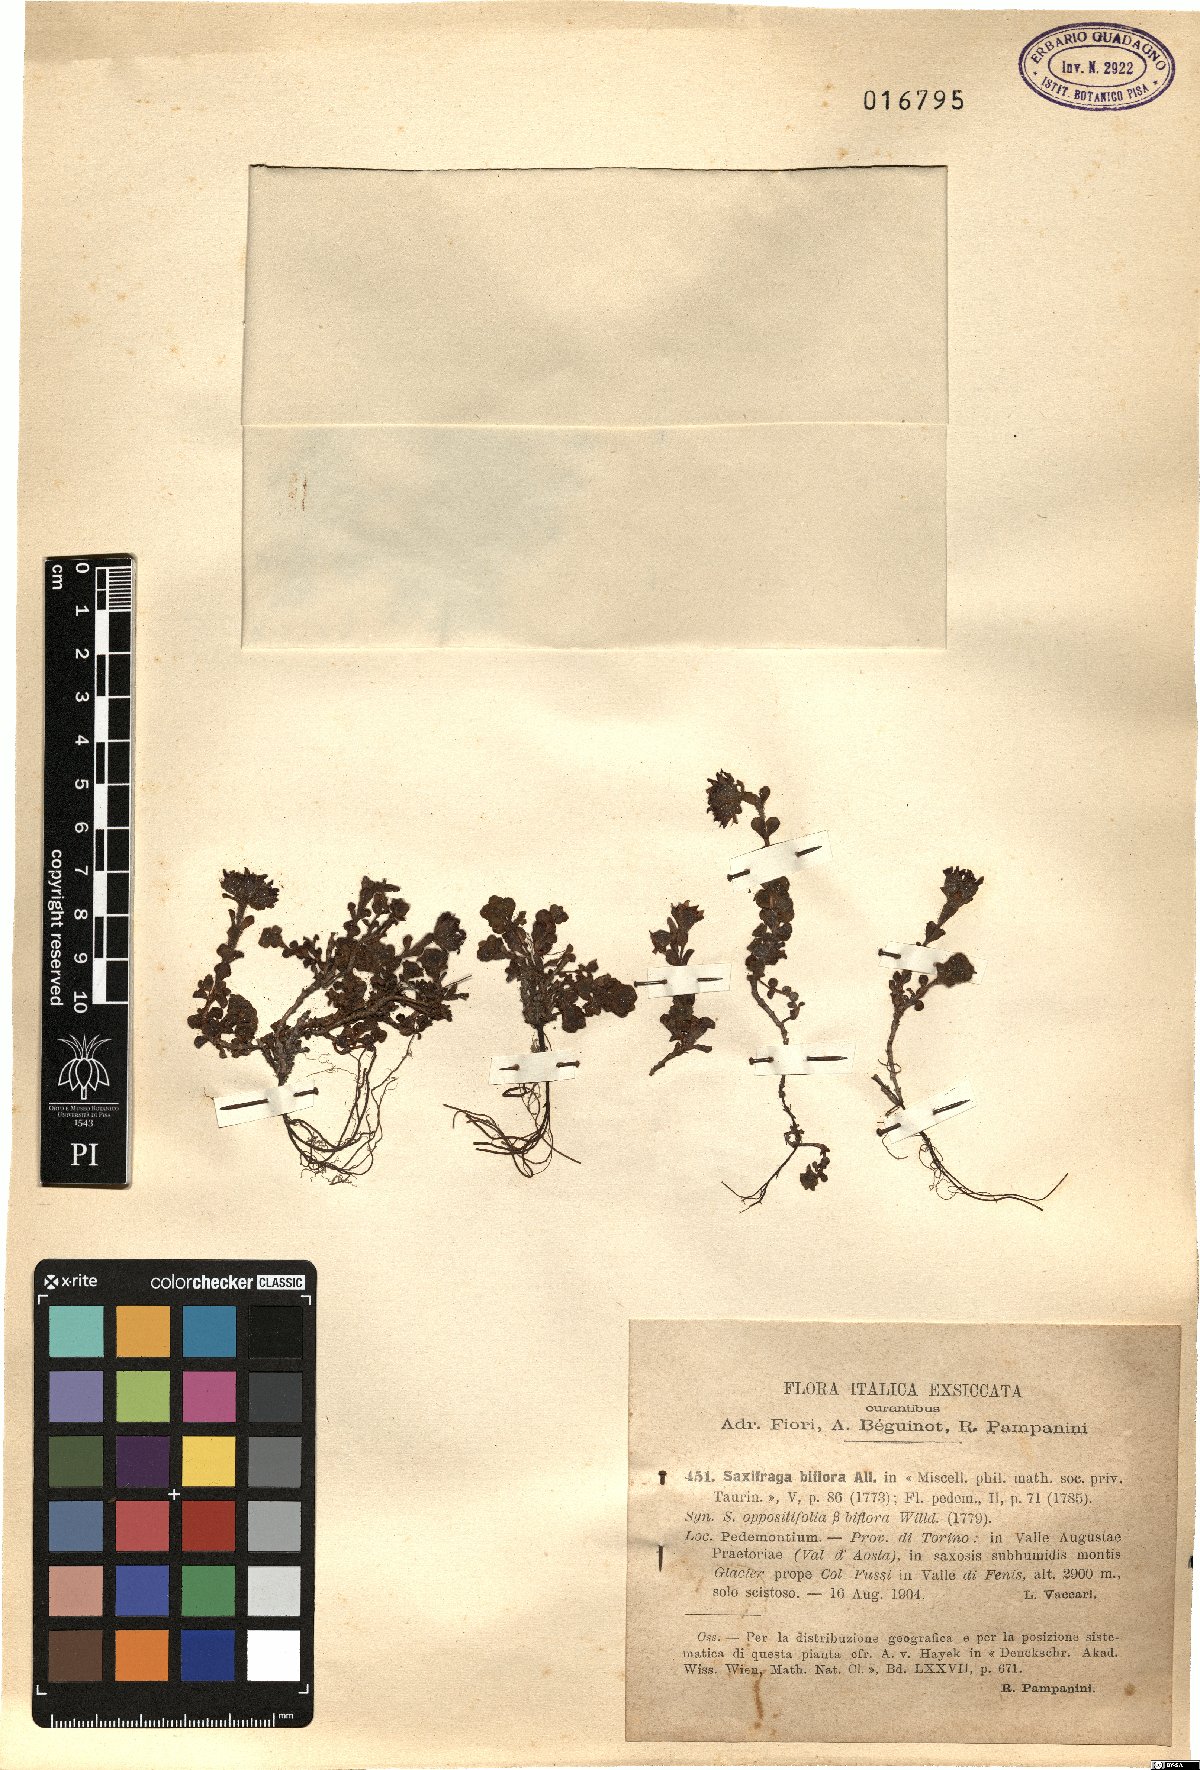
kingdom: Plantae
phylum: Tracheophyta
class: Magnoliopsida
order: Saxifragales
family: Saxifragaceae
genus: Saxifraga
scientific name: Saxifraga biflora
